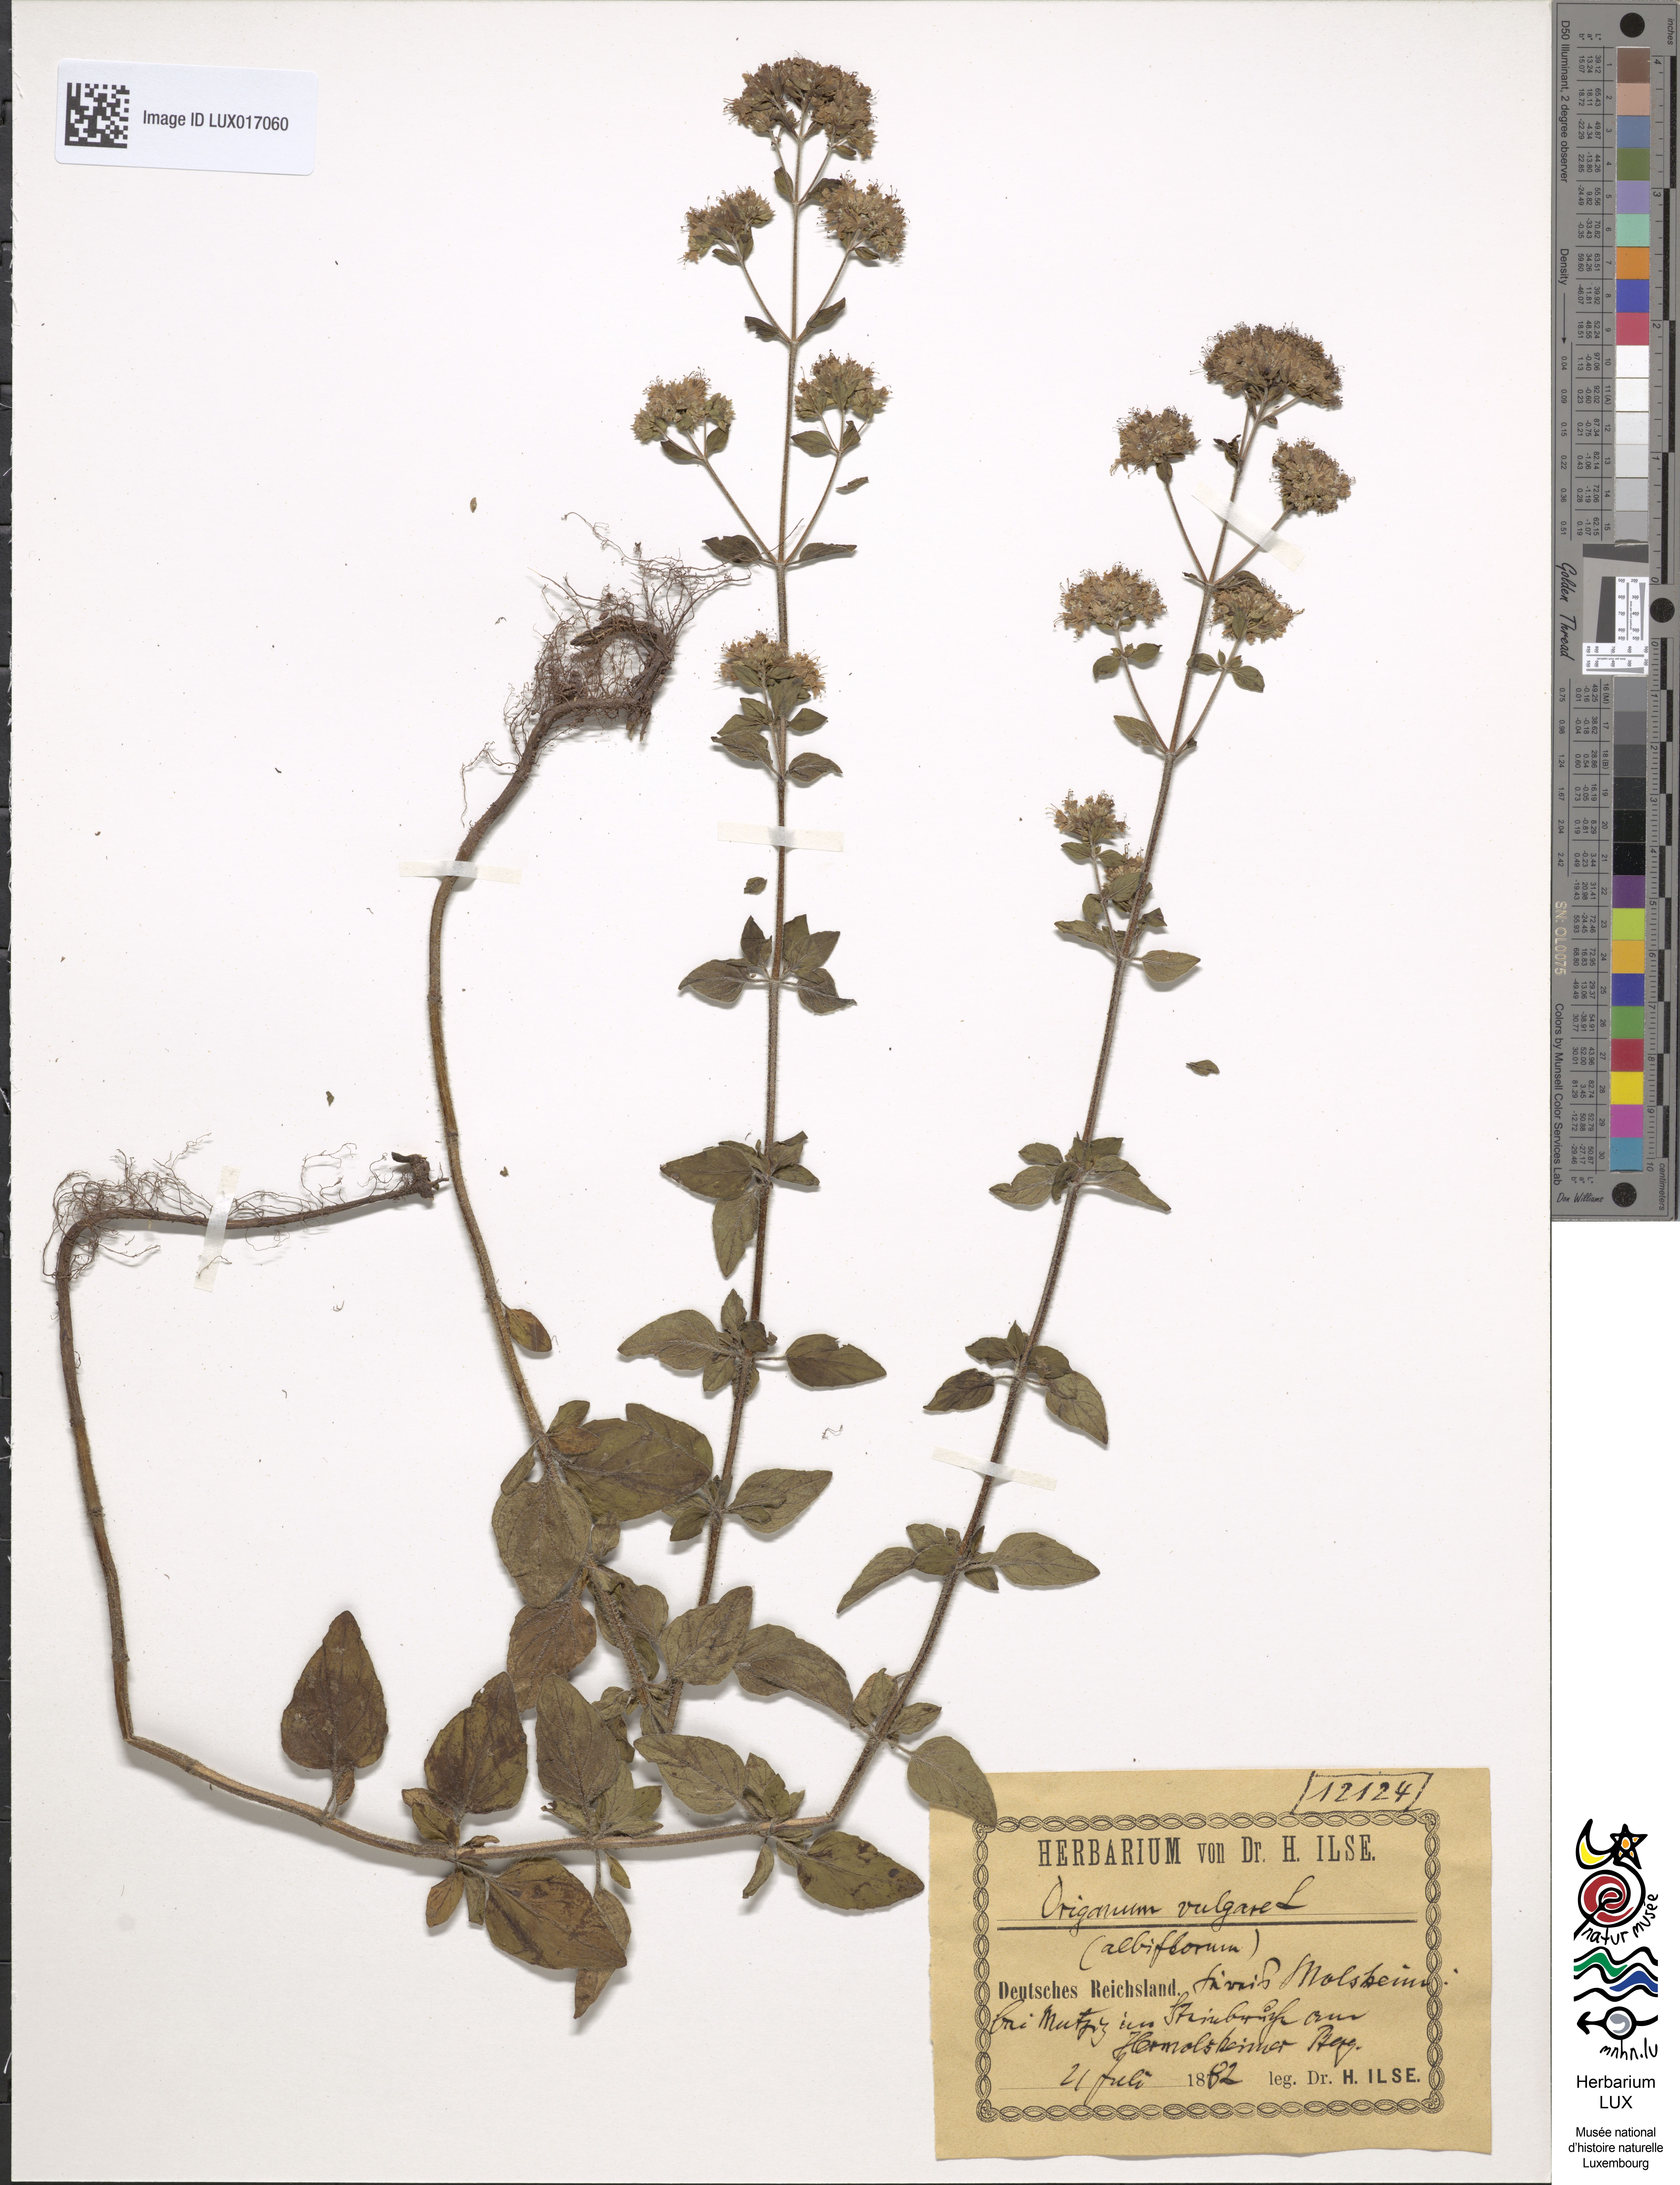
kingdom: Plantae
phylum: Tracheophyta
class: Magnoliopsida
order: Lamiales
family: Lamiaceae
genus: Origanum
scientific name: Origanum vulgare
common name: Wild marjoram
